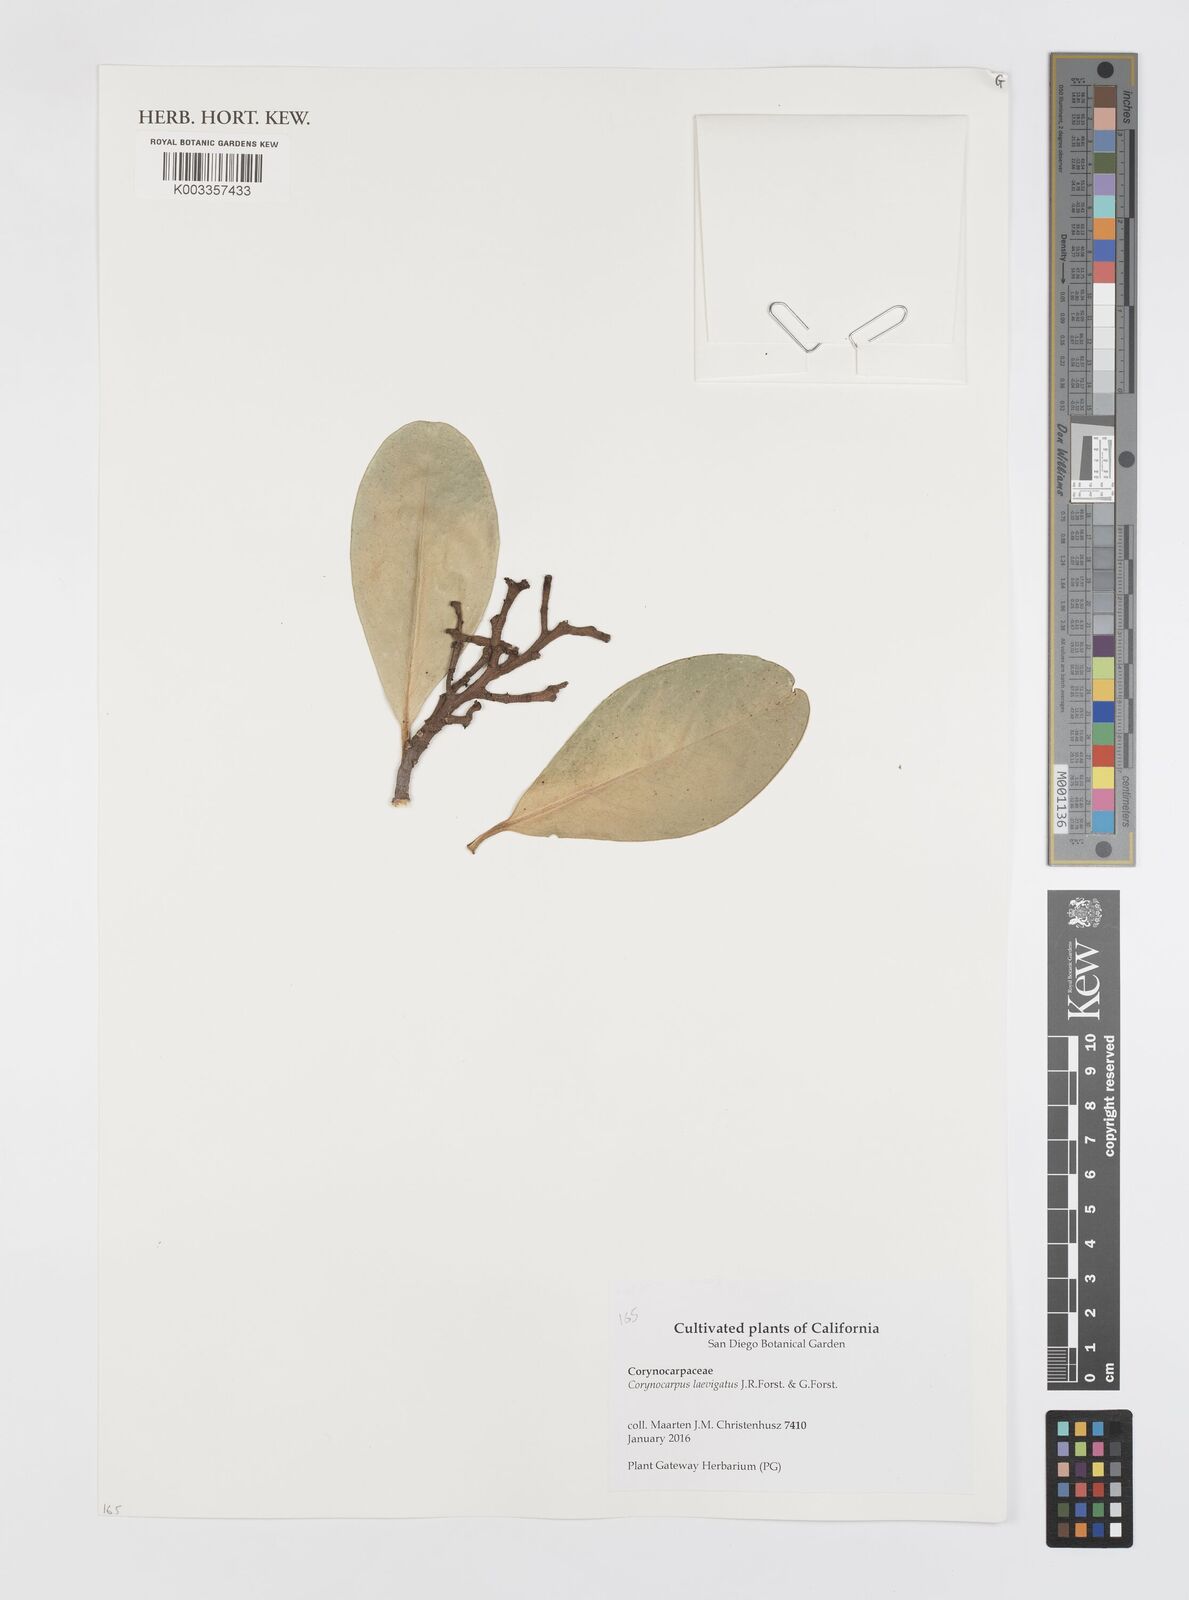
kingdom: Plantae
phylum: Tracheophyta
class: Magnoliopsida
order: Cucurbitales
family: Corynocarpaceae
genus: Corynocarpus
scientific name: Corynocarpus laevigatus
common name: New zealand laurel
